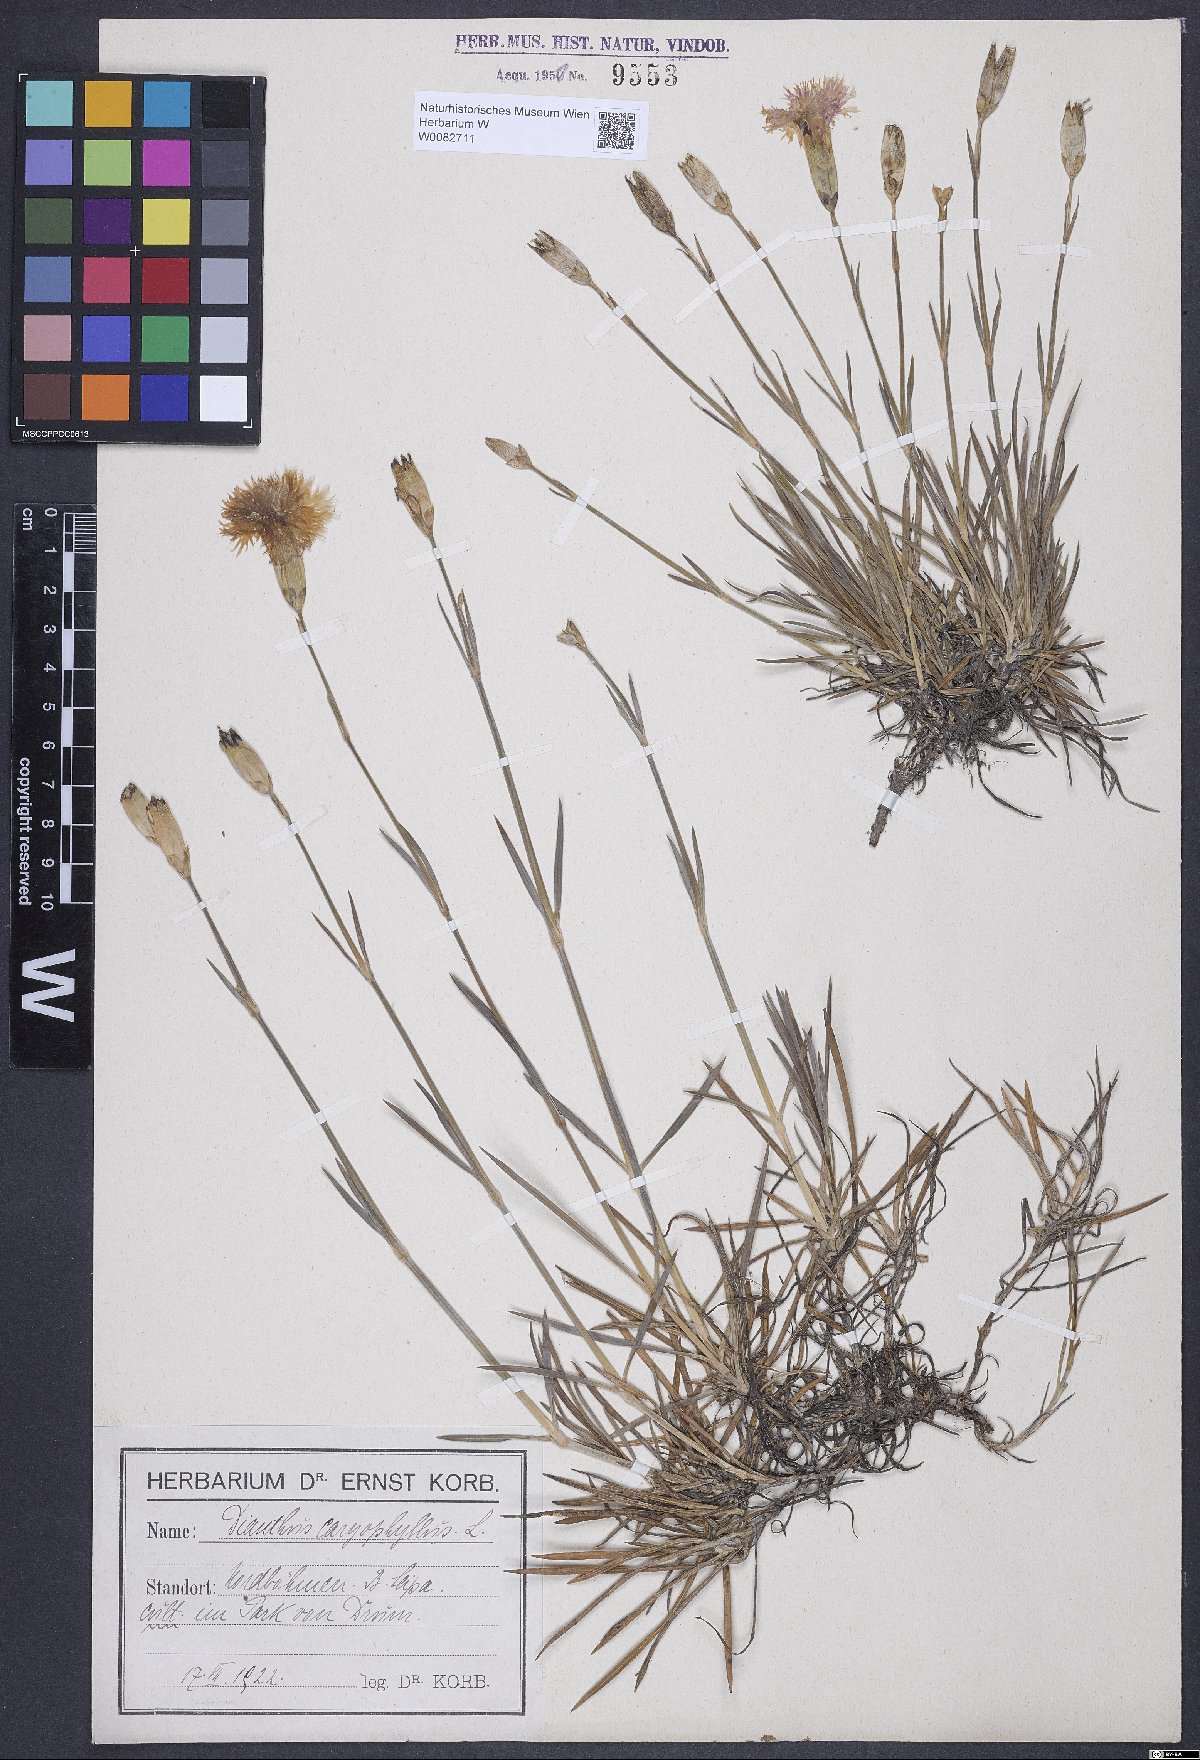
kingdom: Plantae
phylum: Tracheophyta
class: Magnoliopsida
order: Caryophyllales
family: Caryophyllaceae
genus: Dianthus
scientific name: Dianthus caryophyllus
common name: Clove pink
